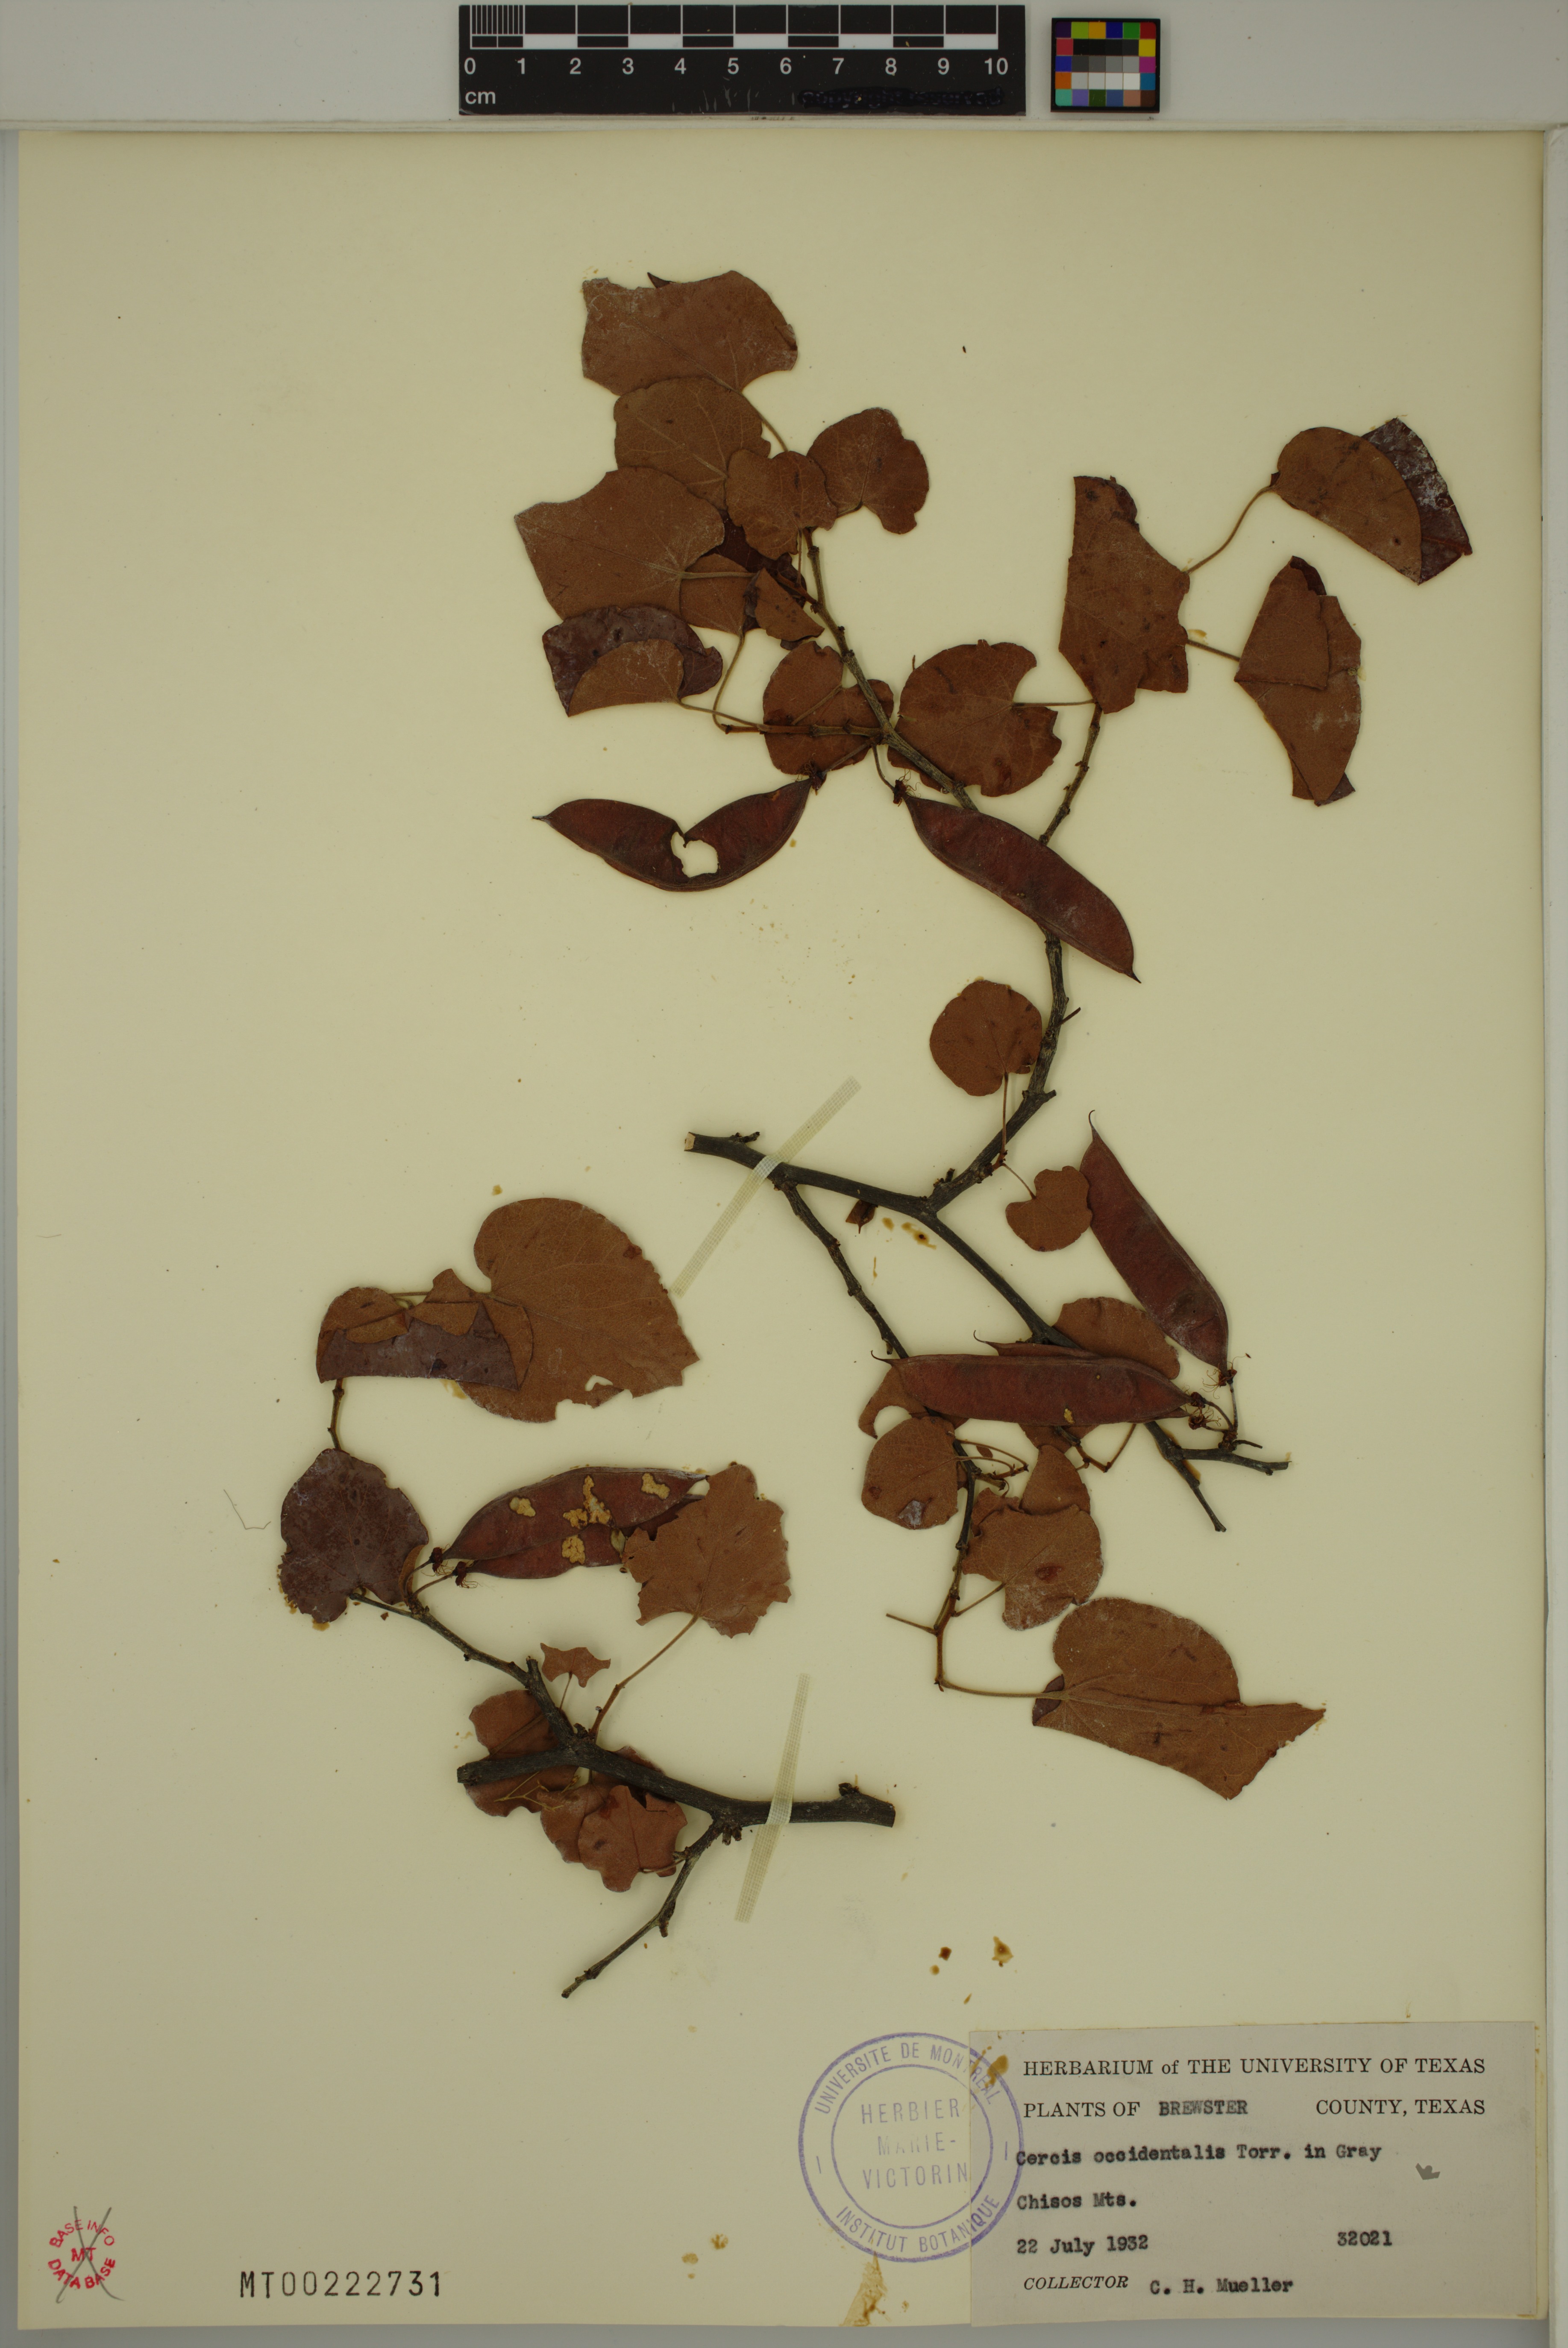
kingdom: Plantae
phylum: Tracheophyta
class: Magnoliopsida
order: Fabales
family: Fabaceae
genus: Cercis
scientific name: Cercis occidentalis
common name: California redbud
